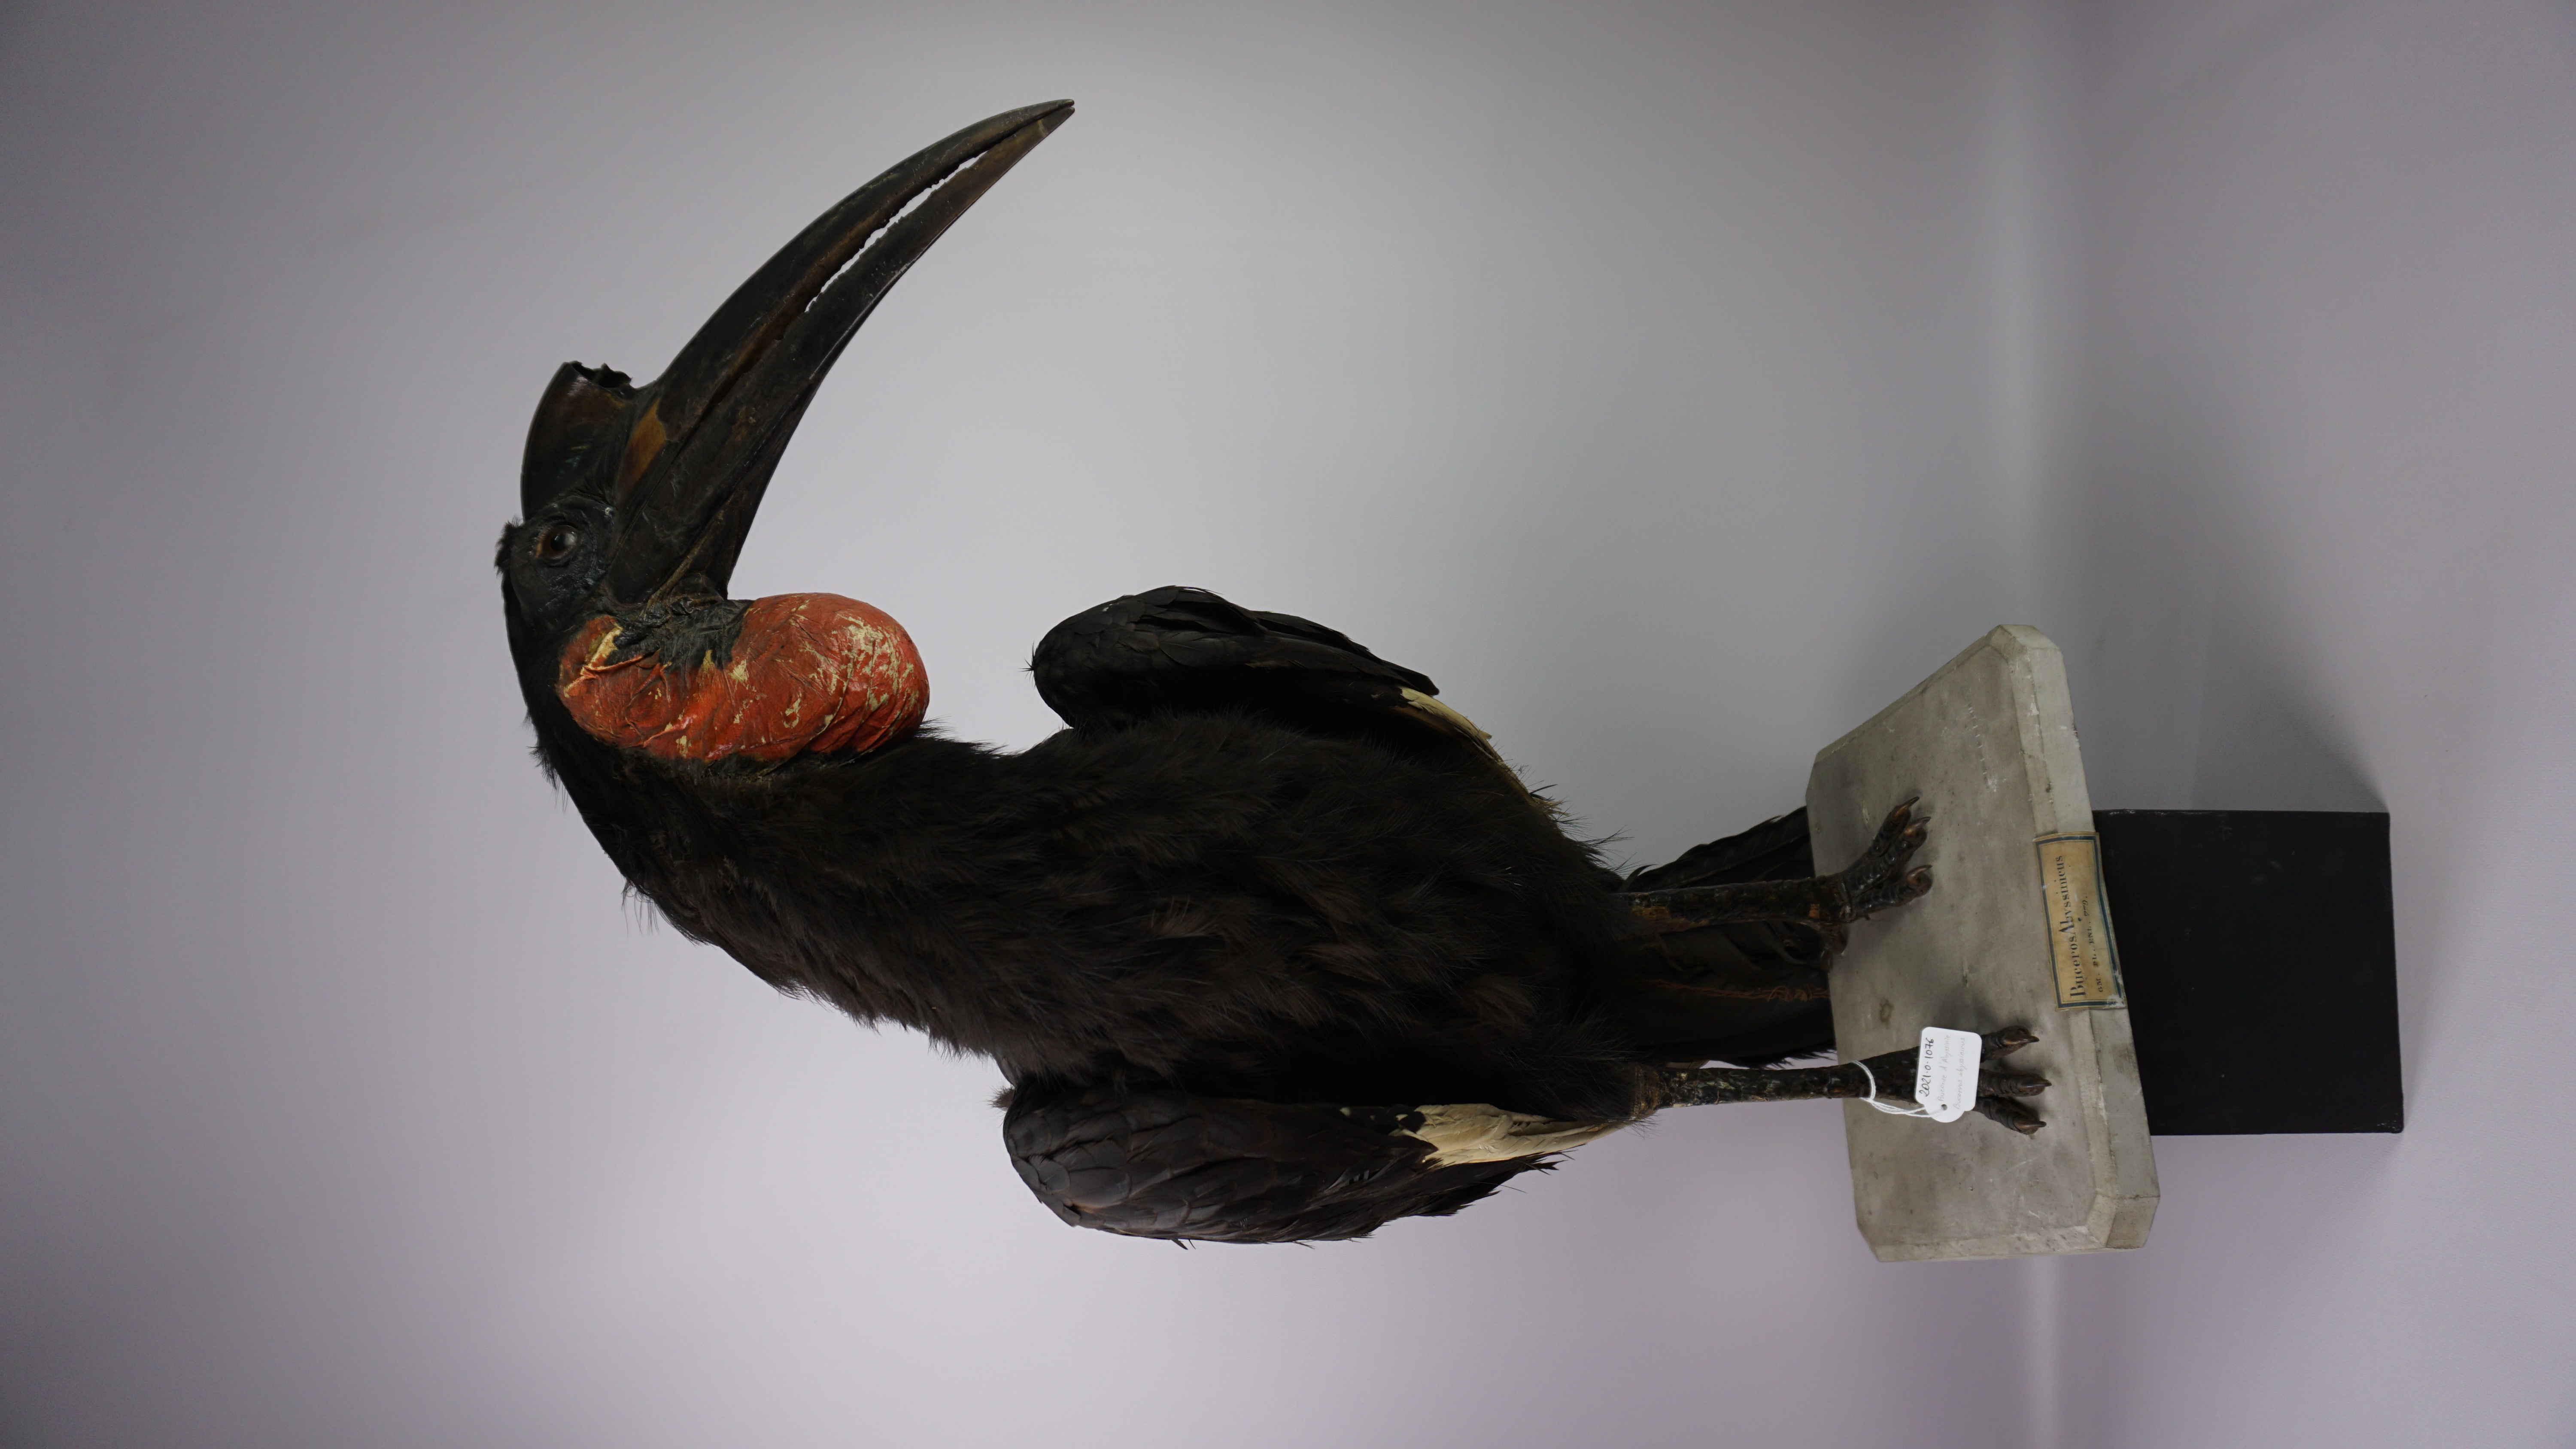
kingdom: Animalia
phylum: Chordata
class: Aves
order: Bucerotiformes
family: Bucorvidae
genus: Bucorvus
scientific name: Bucorvus abyssinicus
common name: Abyssinian ground hornbill
